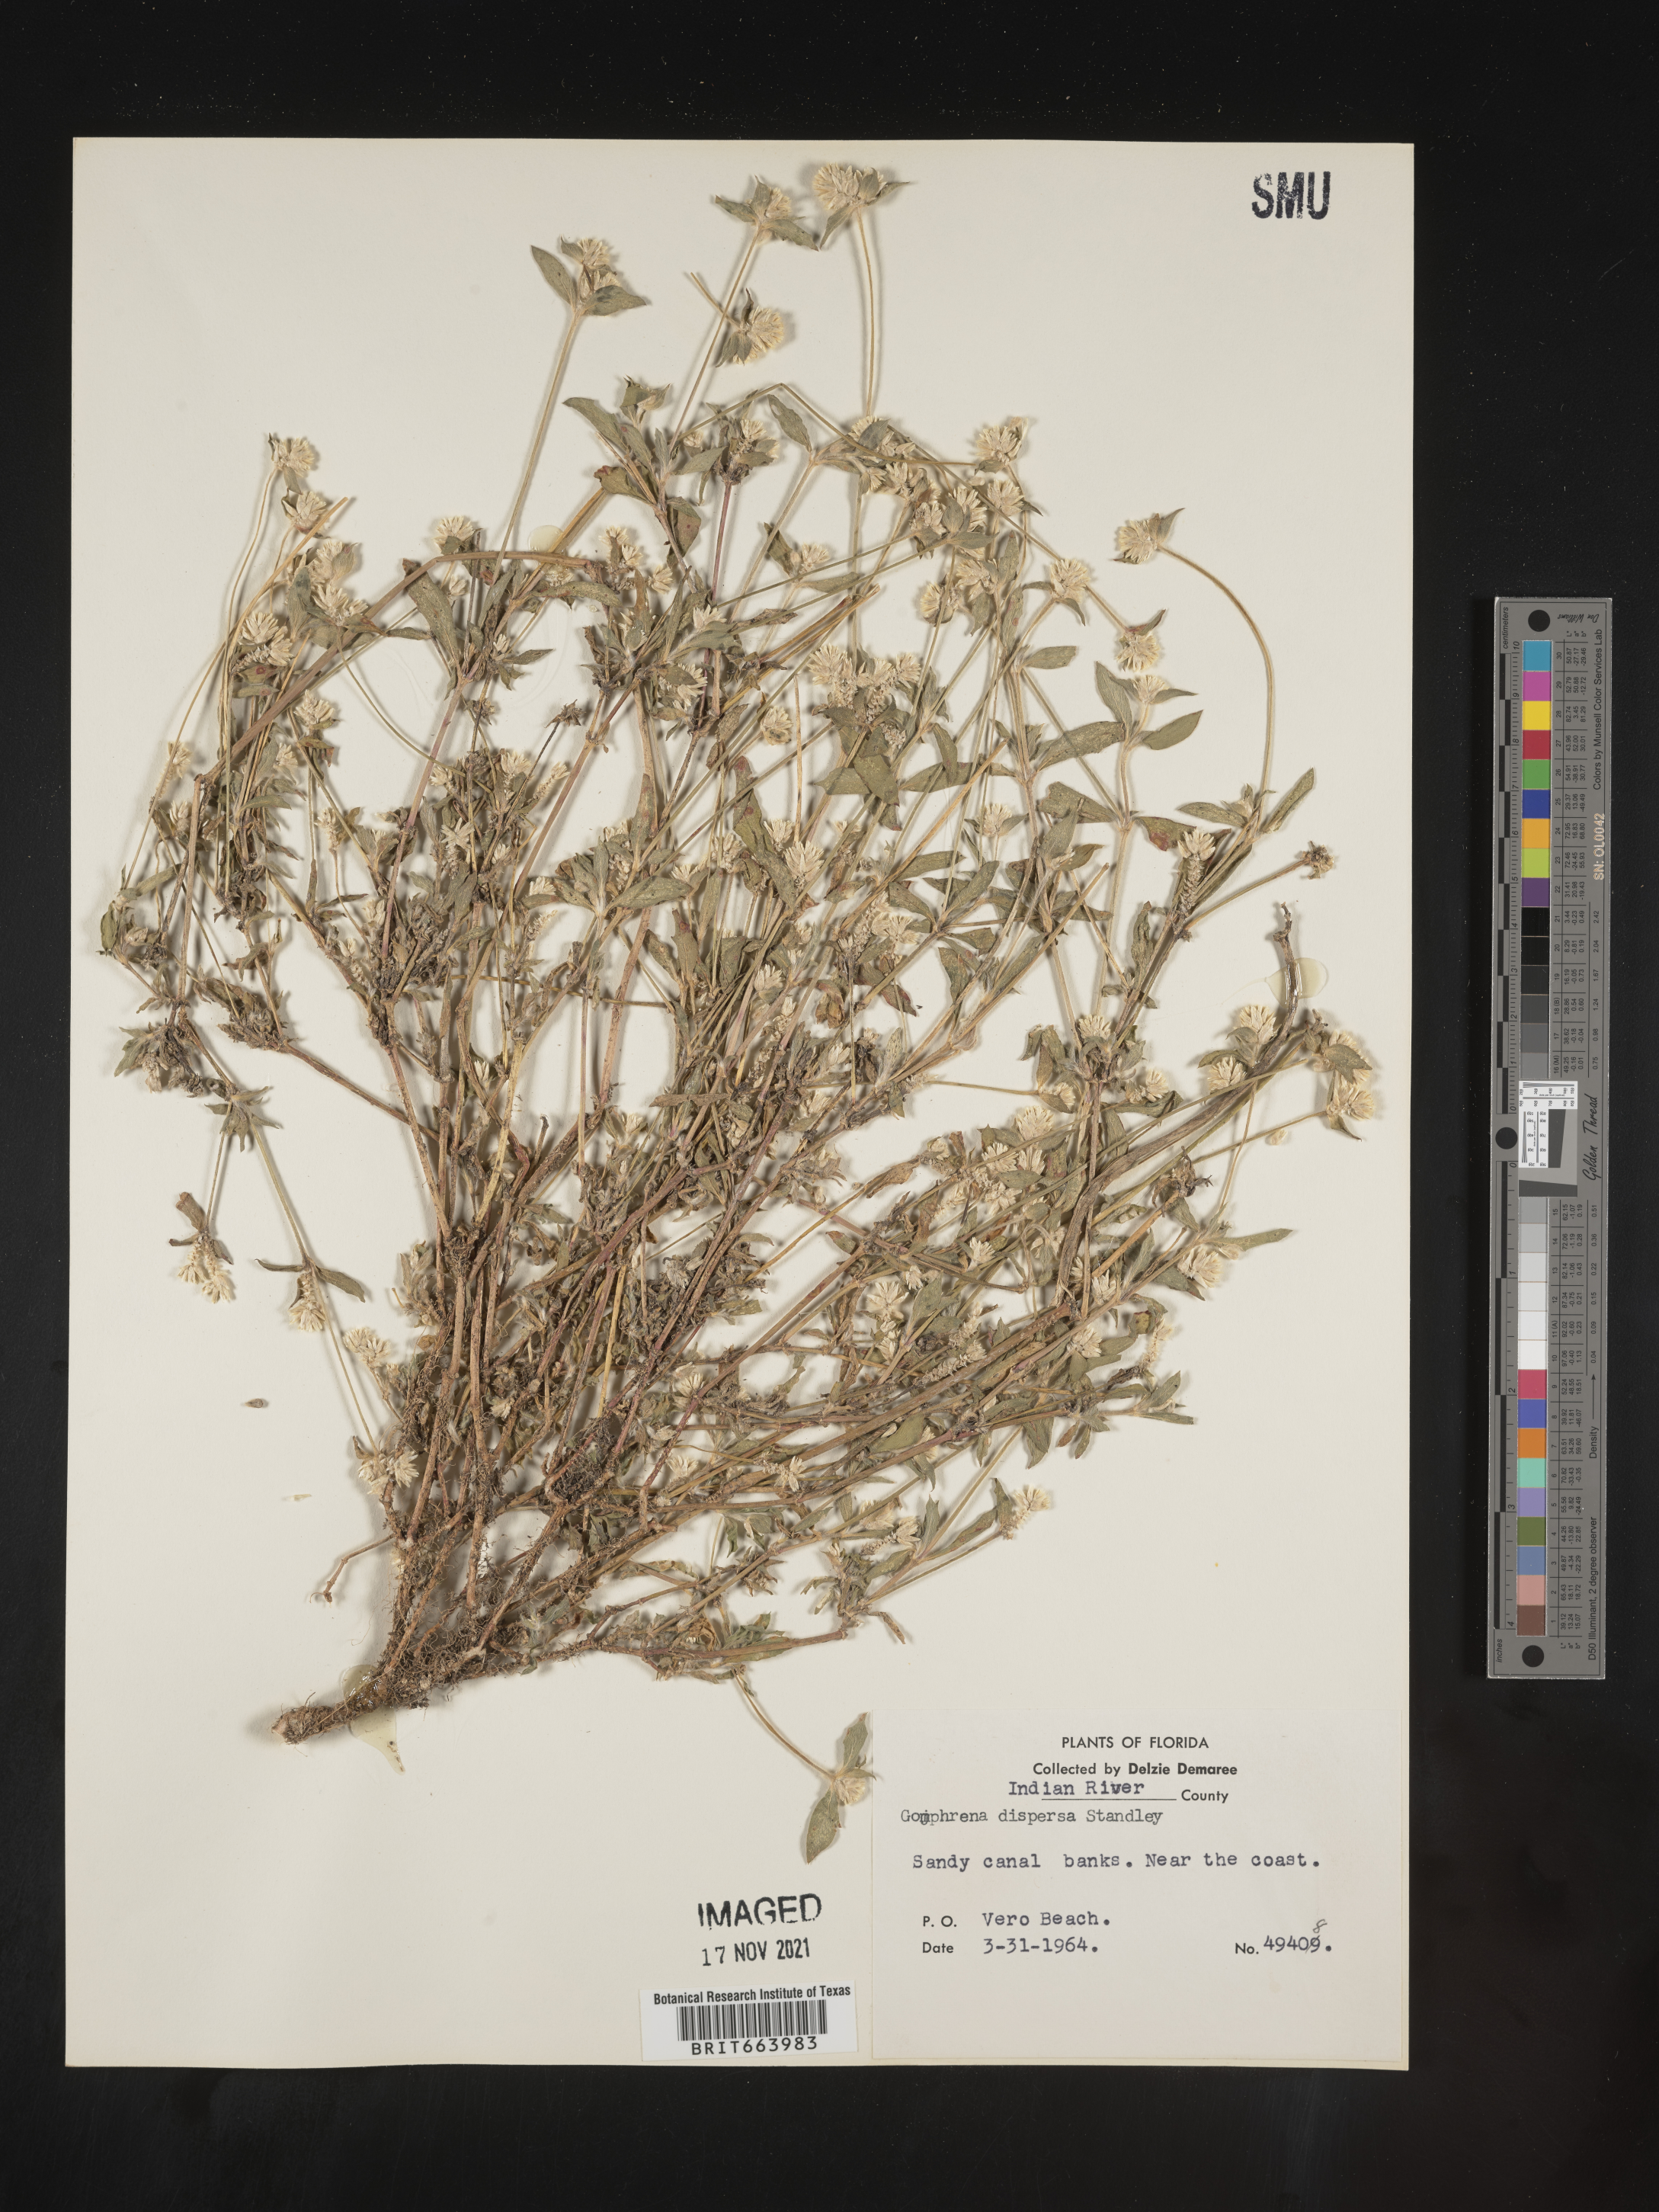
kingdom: Plantae
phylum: Tracheophyta
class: Magnoliopsida
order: Caryophyllales
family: Amaranthaceae
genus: Gomphrena
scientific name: Gomphrena
